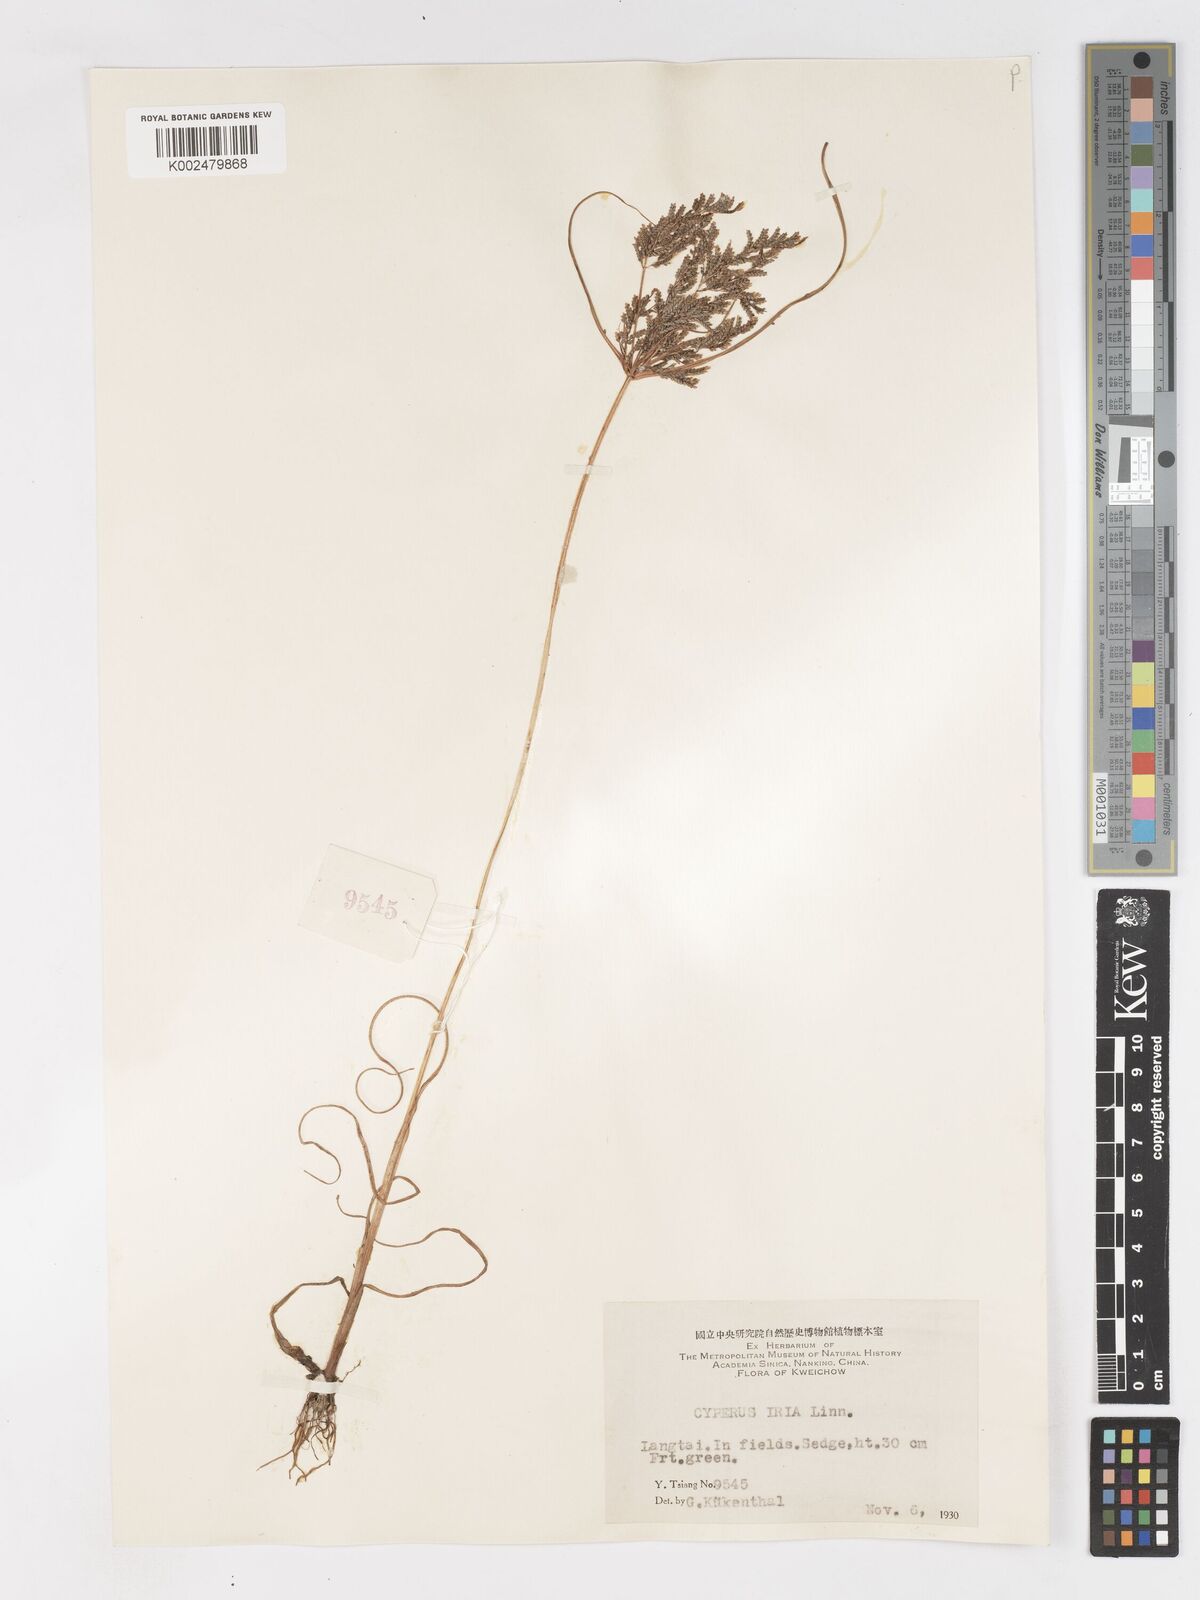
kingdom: Plantae
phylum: Tracheophyta
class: Liliopsida
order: Poales
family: Cyperaceae
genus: Cyperus
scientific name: Cyperus iria
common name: Ricefield flatsedge
